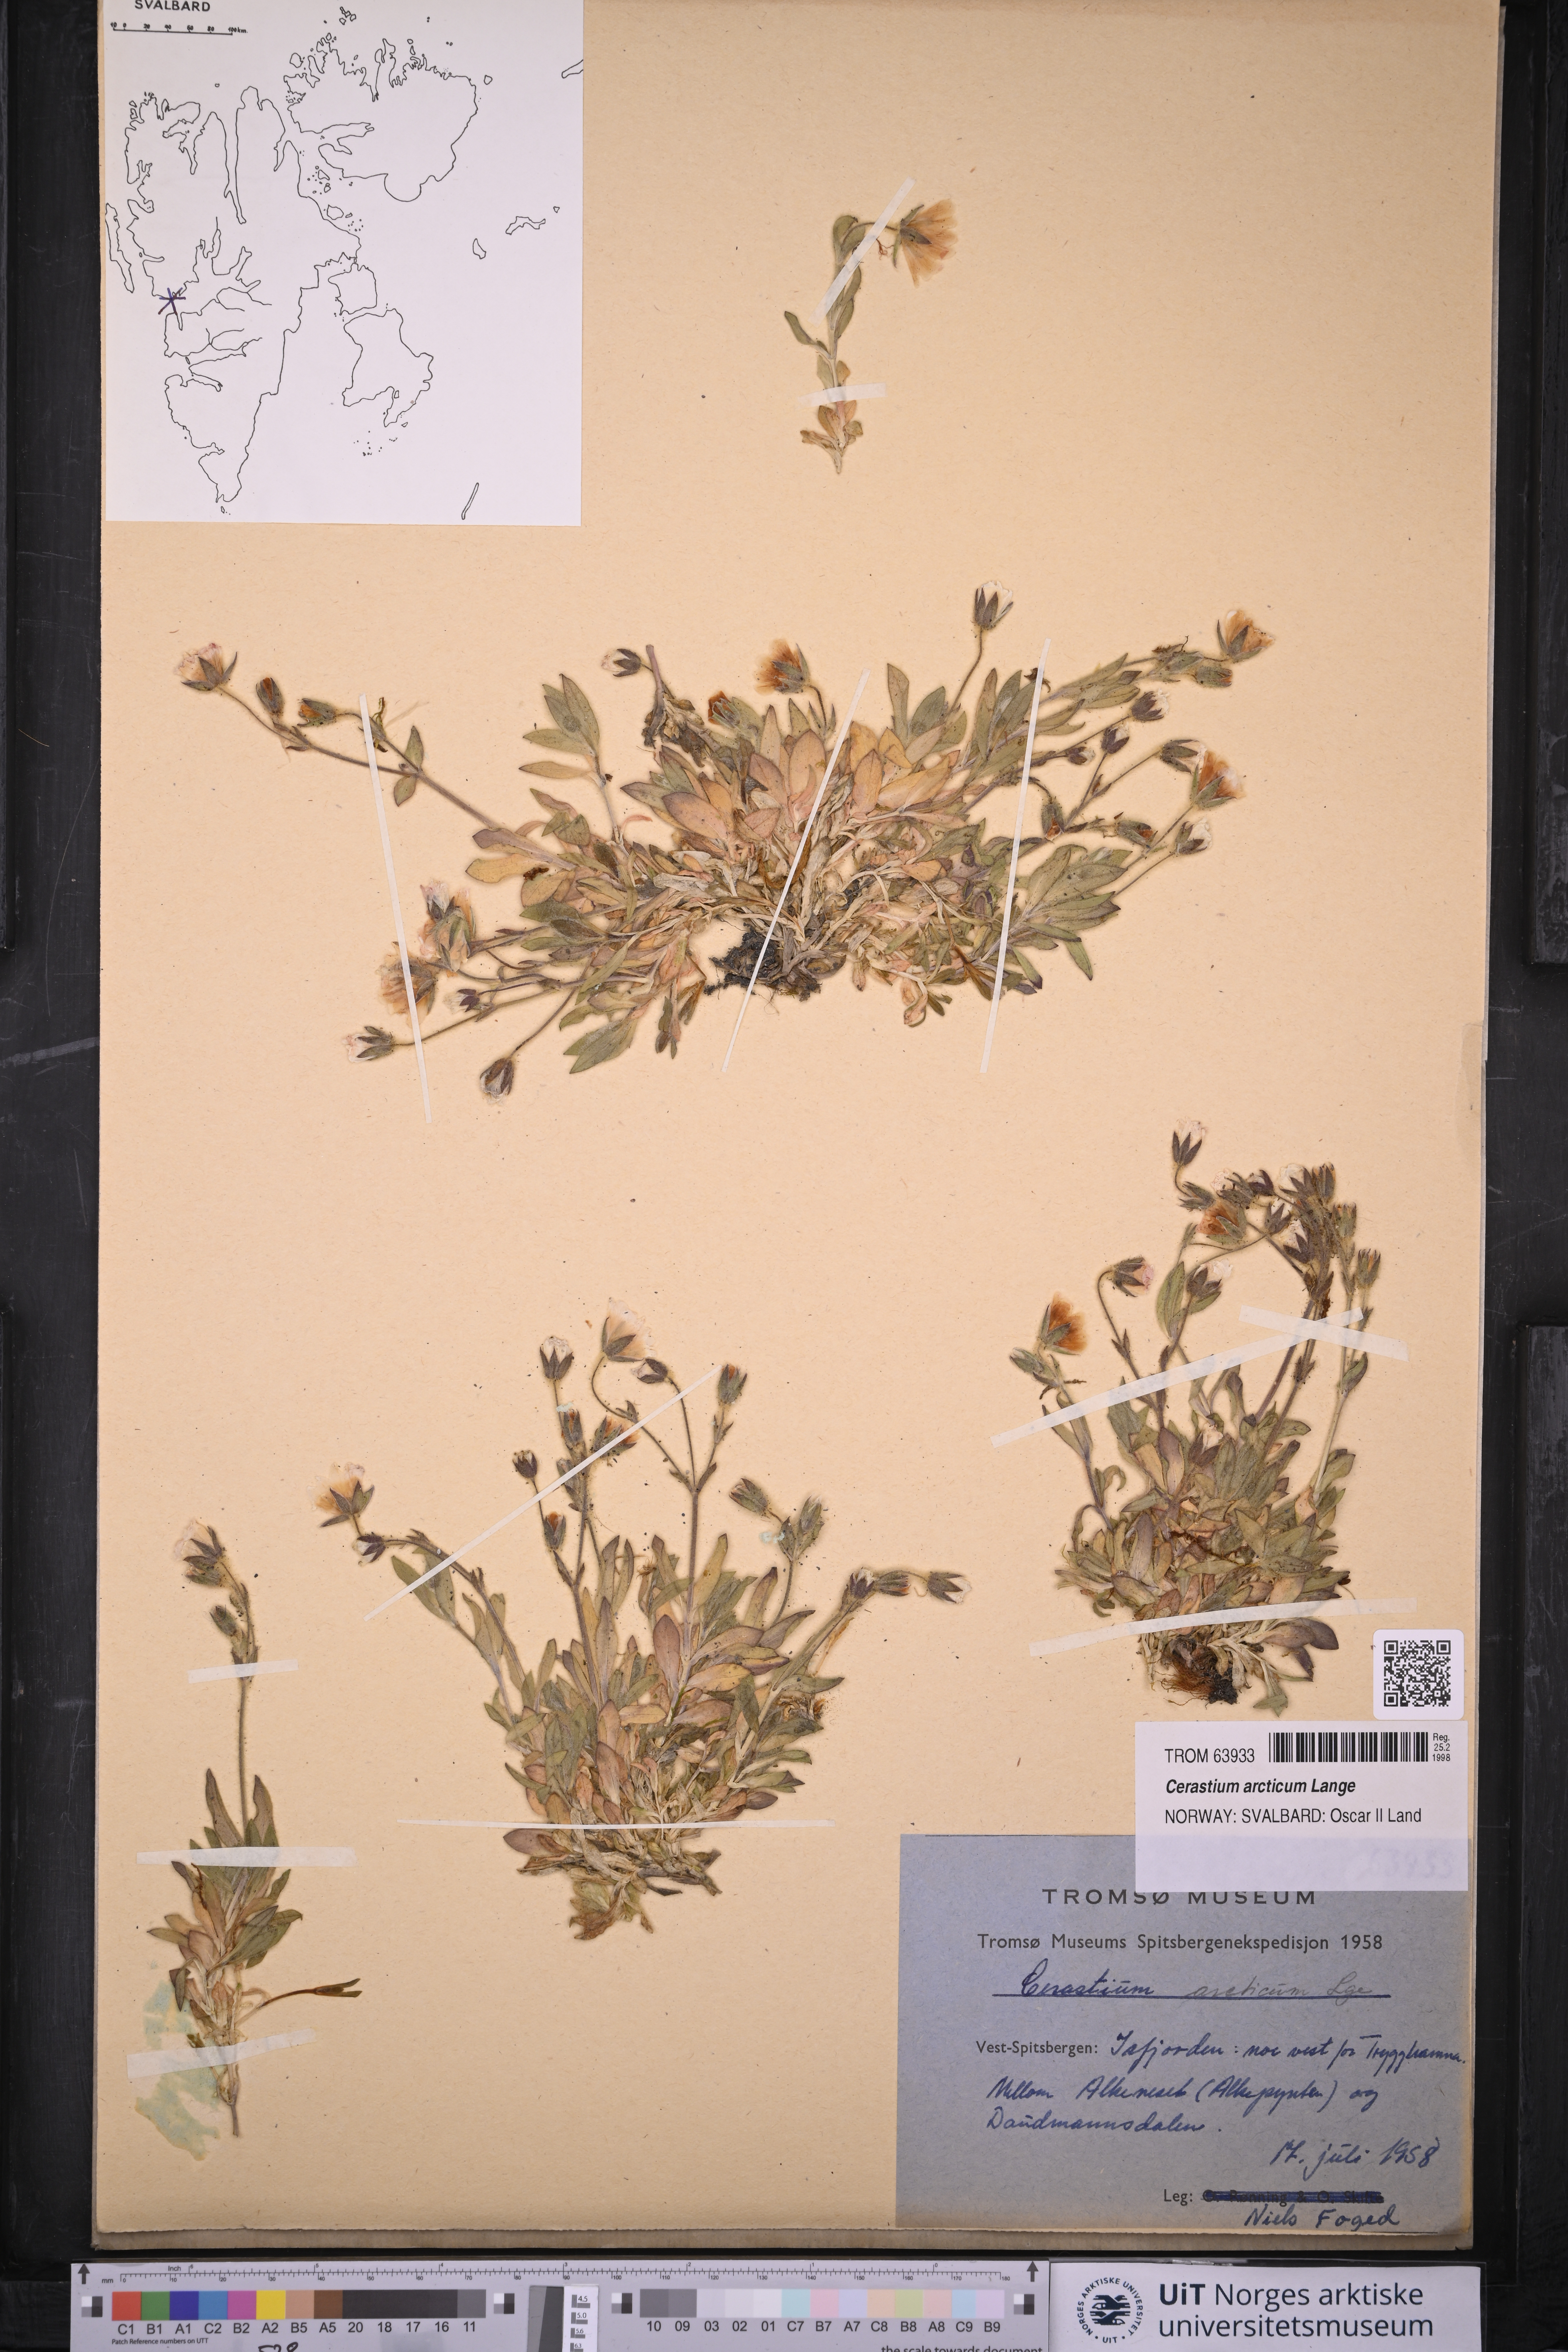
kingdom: Plantae
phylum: Tracheophyta
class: Magnoliopsida
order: Caryophyllales
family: Caryophyllaceae
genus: Cerastium
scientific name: Cerastium arcticum
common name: Arctic mouse-ear
